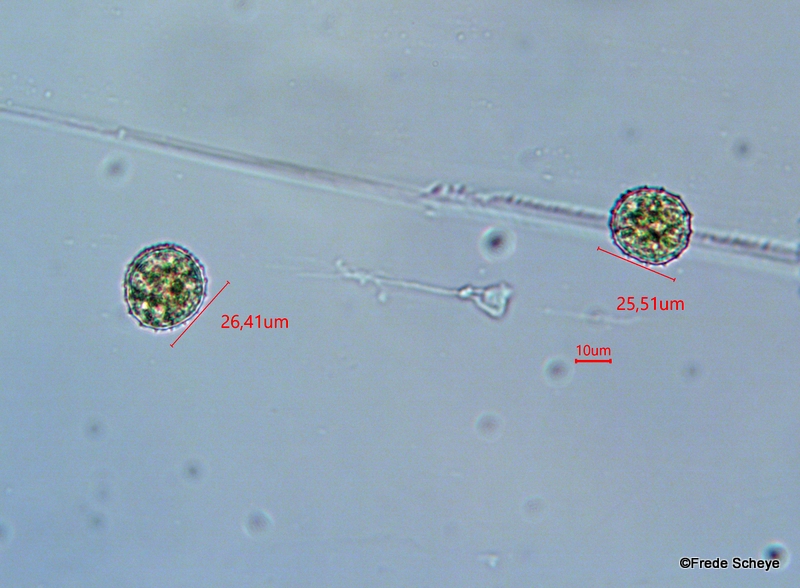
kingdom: Fungi
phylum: Basidiomycota
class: Pucciniomycetes
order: Pucciniales
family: Phragmidiaceae
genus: Phragmidium
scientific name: Phragmidium rubi-idaei
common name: hindbær-flercellerust
